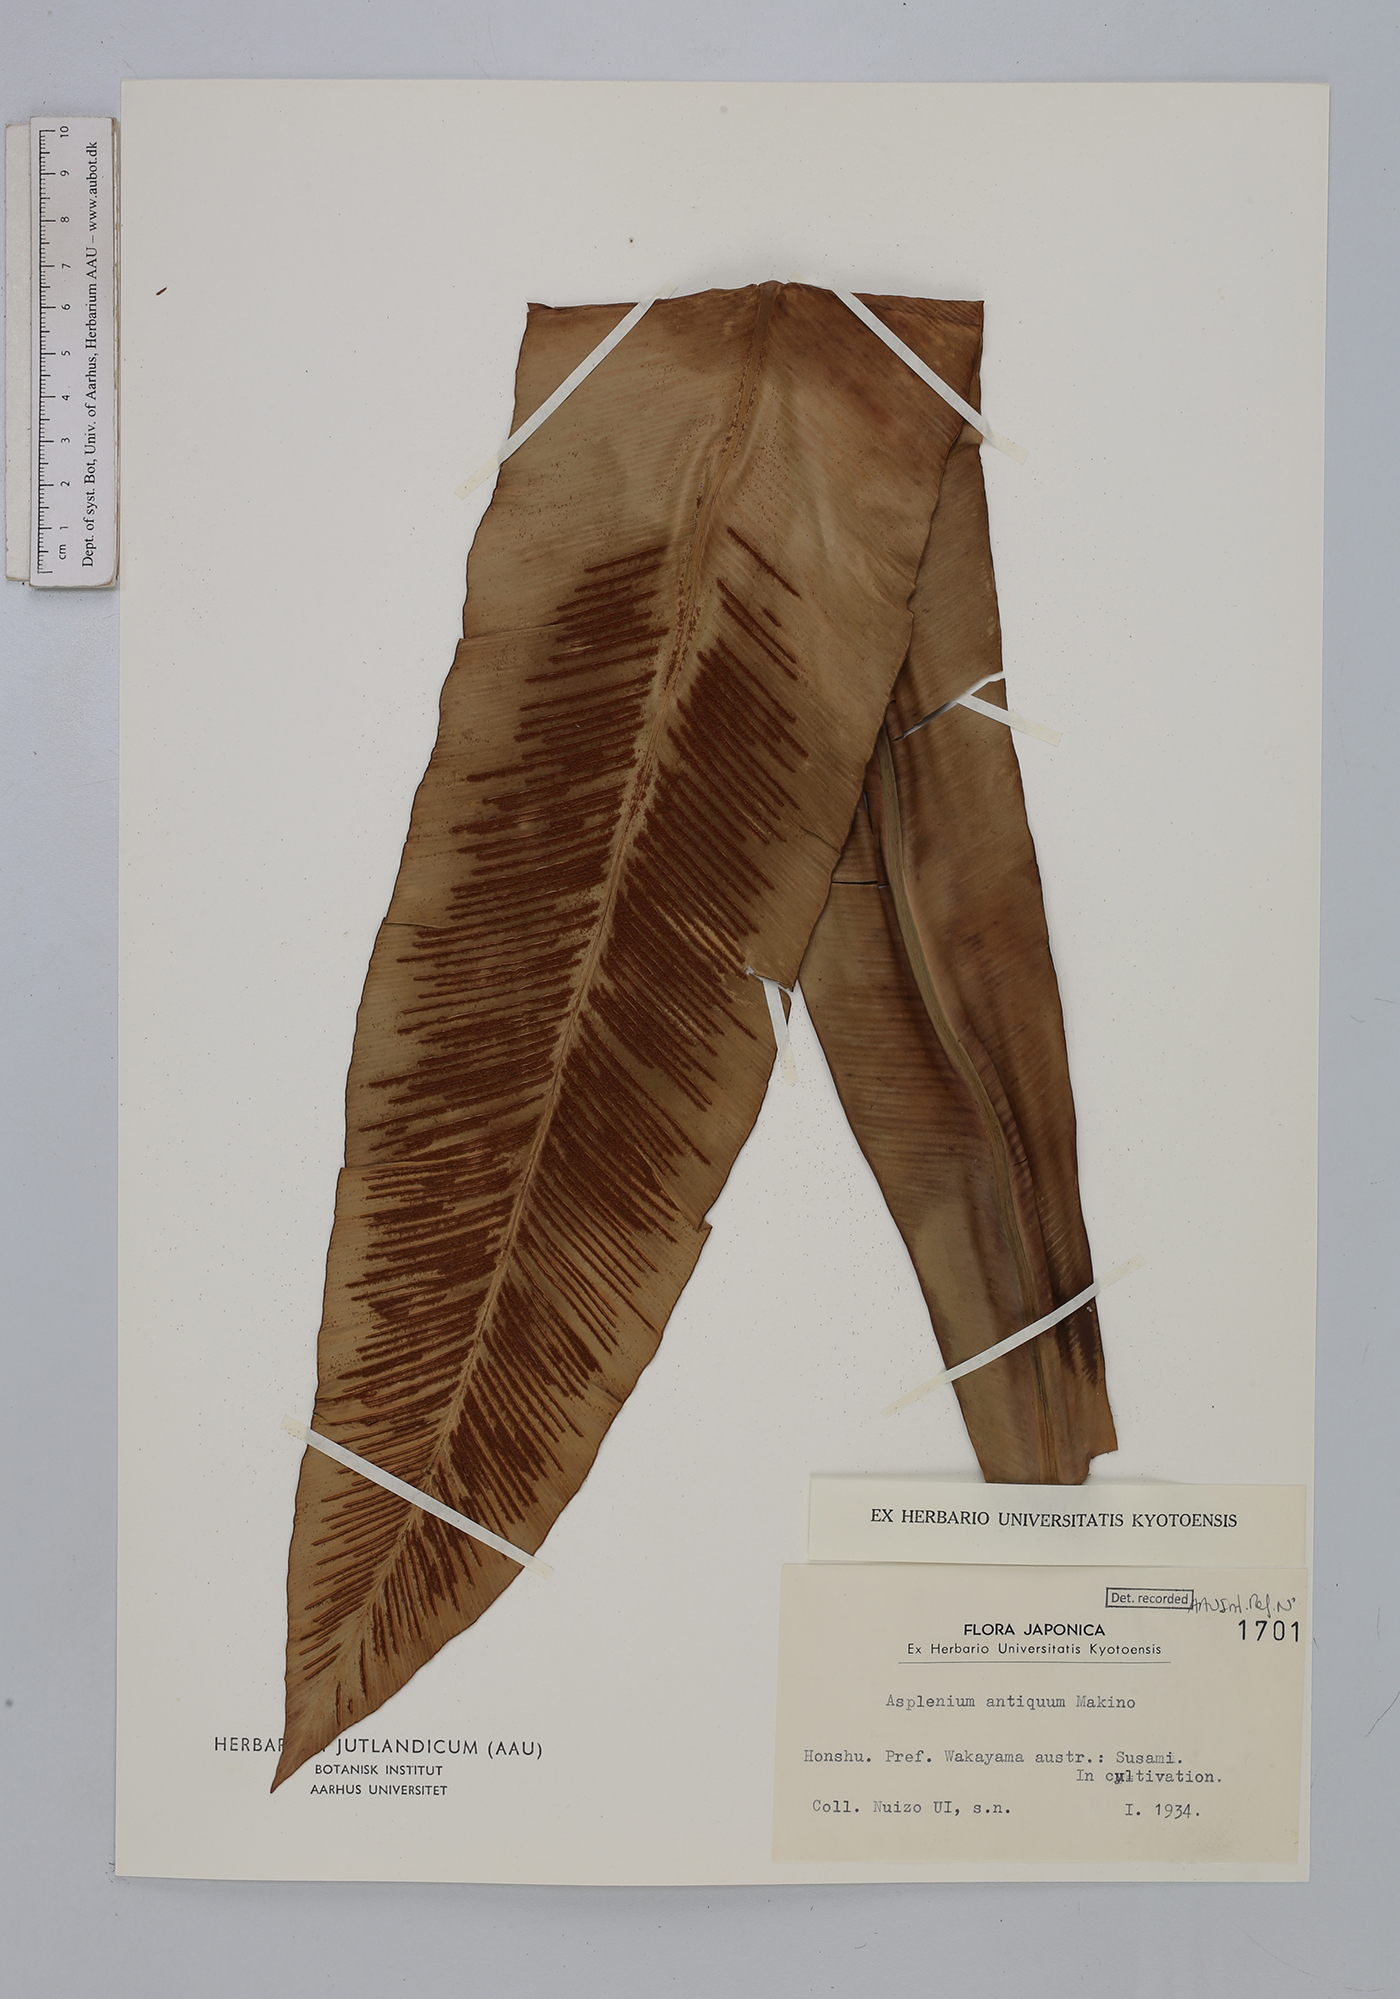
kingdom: Plantae
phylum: Tracheophyta
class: Polypodiopsida
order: Polypodiales
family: Aspleniaceae
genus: Asplenium
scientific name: Asplenium antiquum
